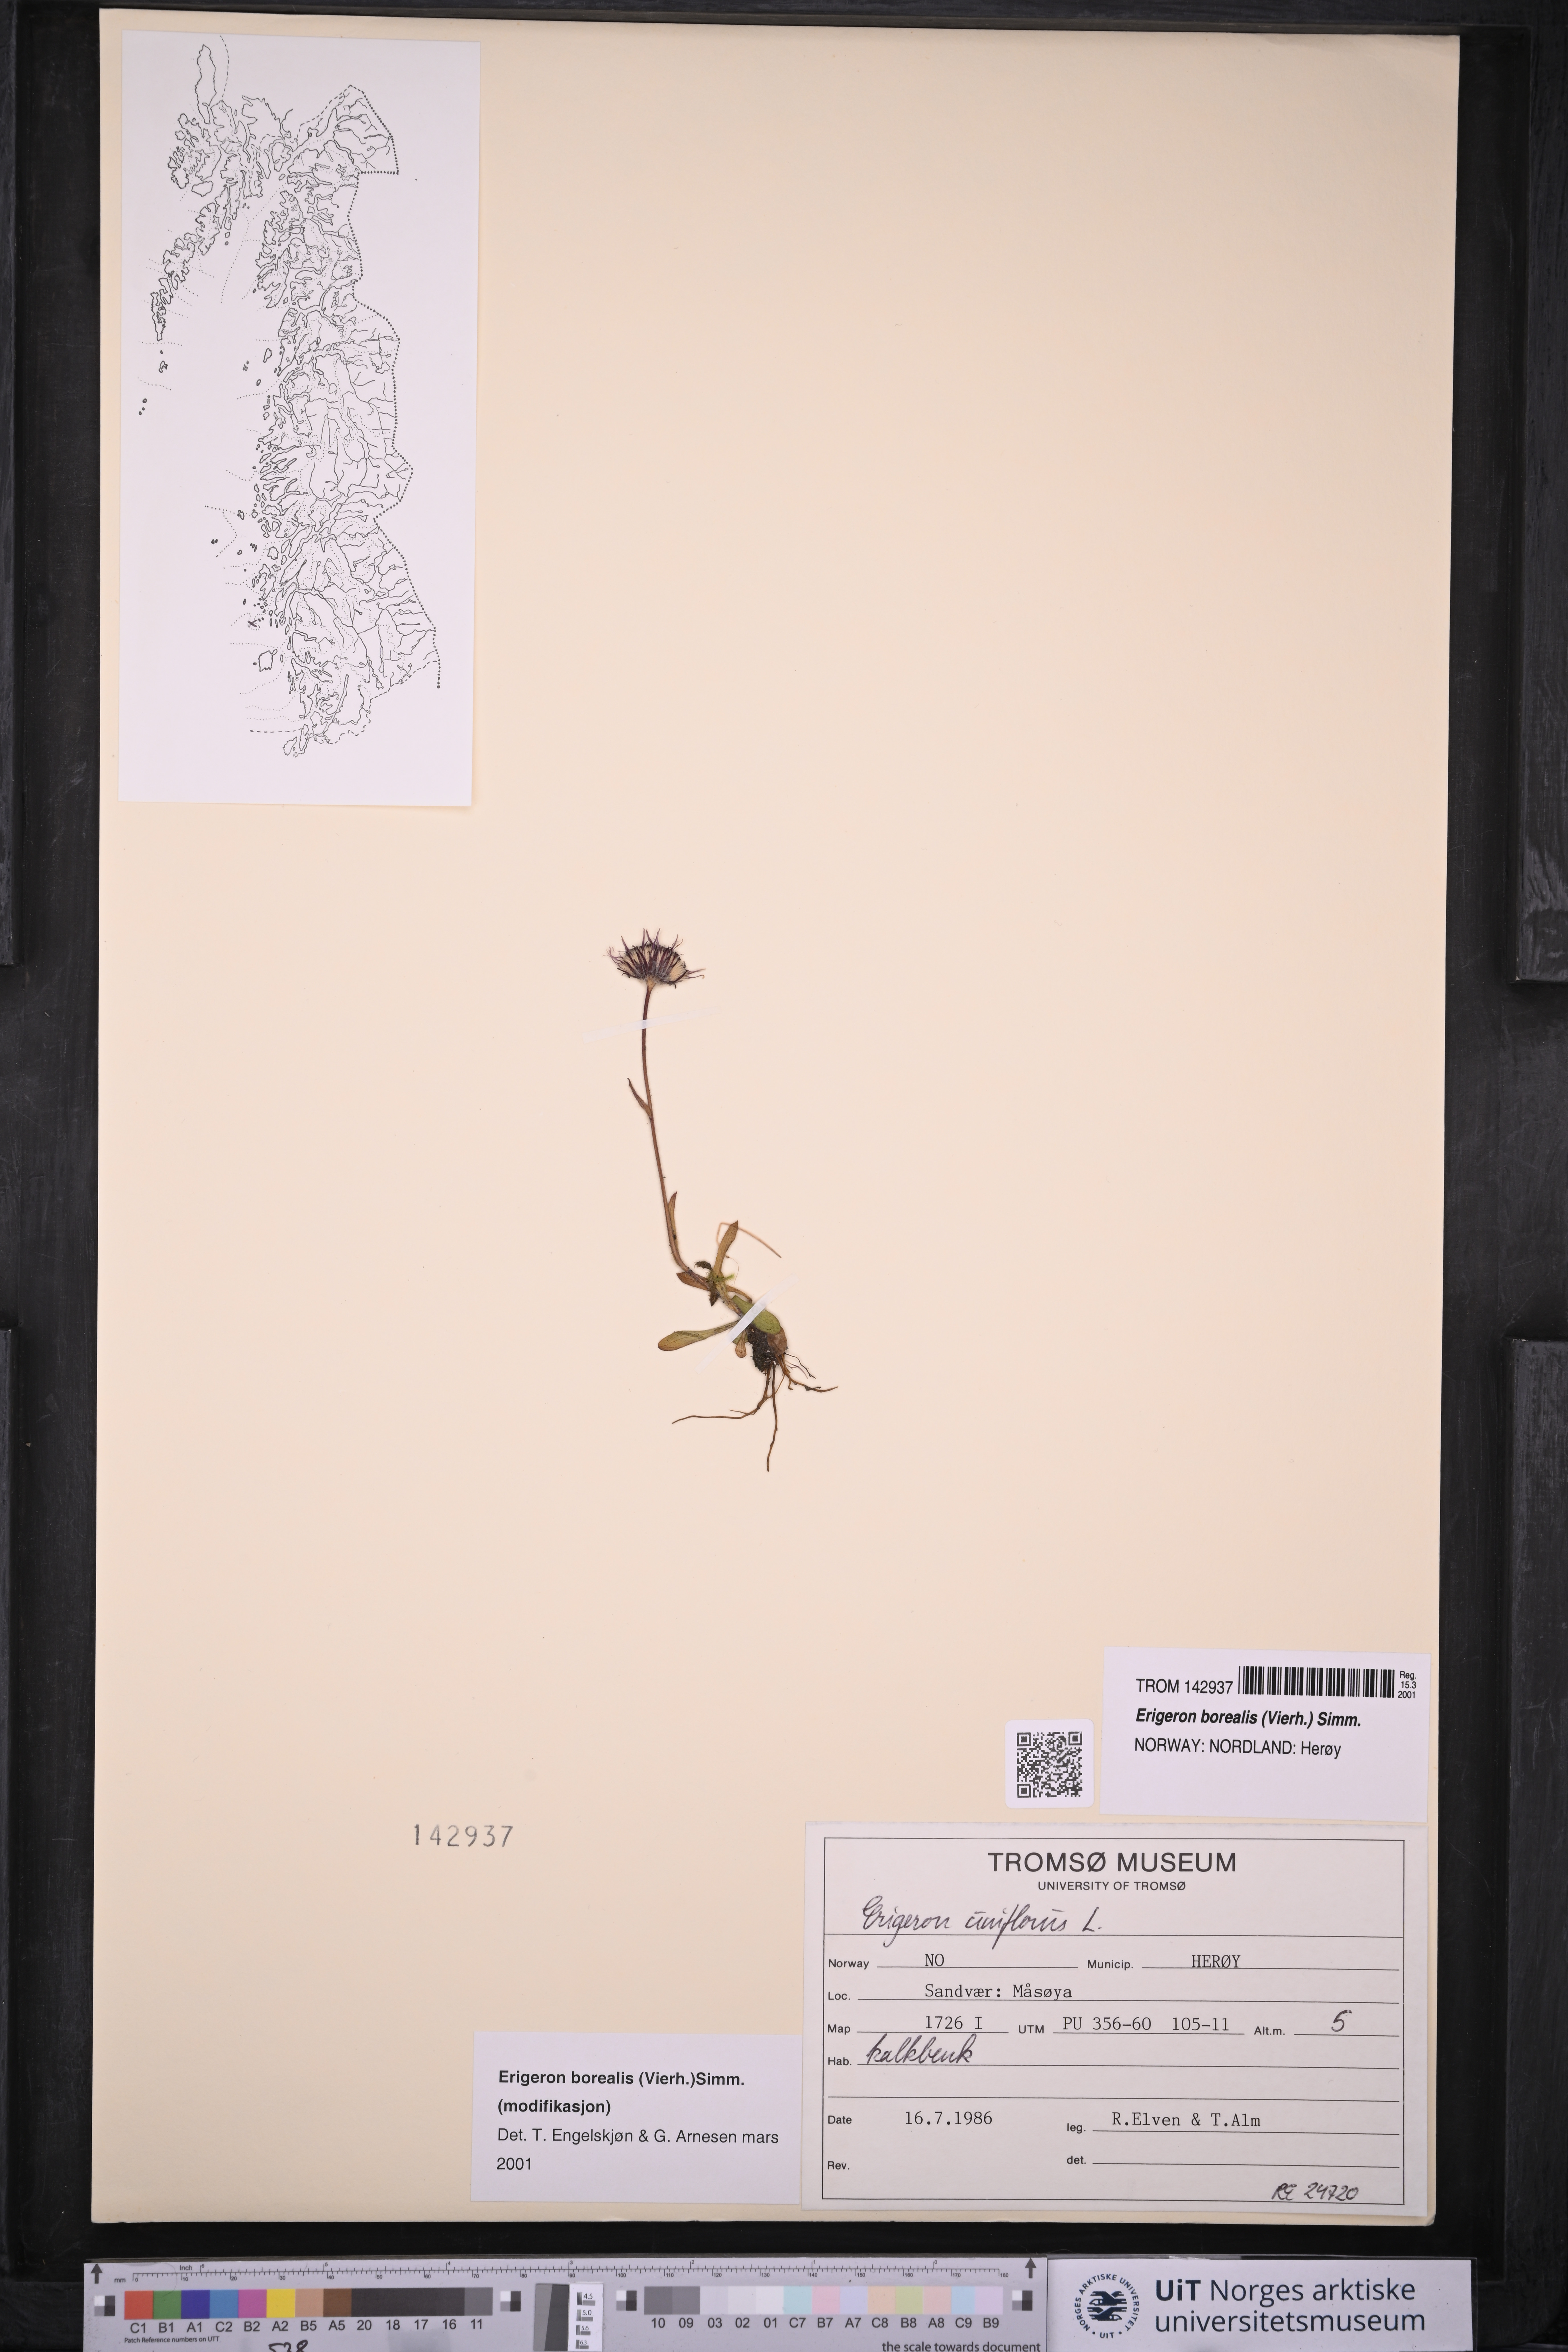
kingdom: Plantae
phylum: Tracheophyta
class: Magnoliopsida
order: Asterales
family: Asteraceae
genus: Erigeron
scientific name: Erigeron borealis
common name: Alpine fleabane
